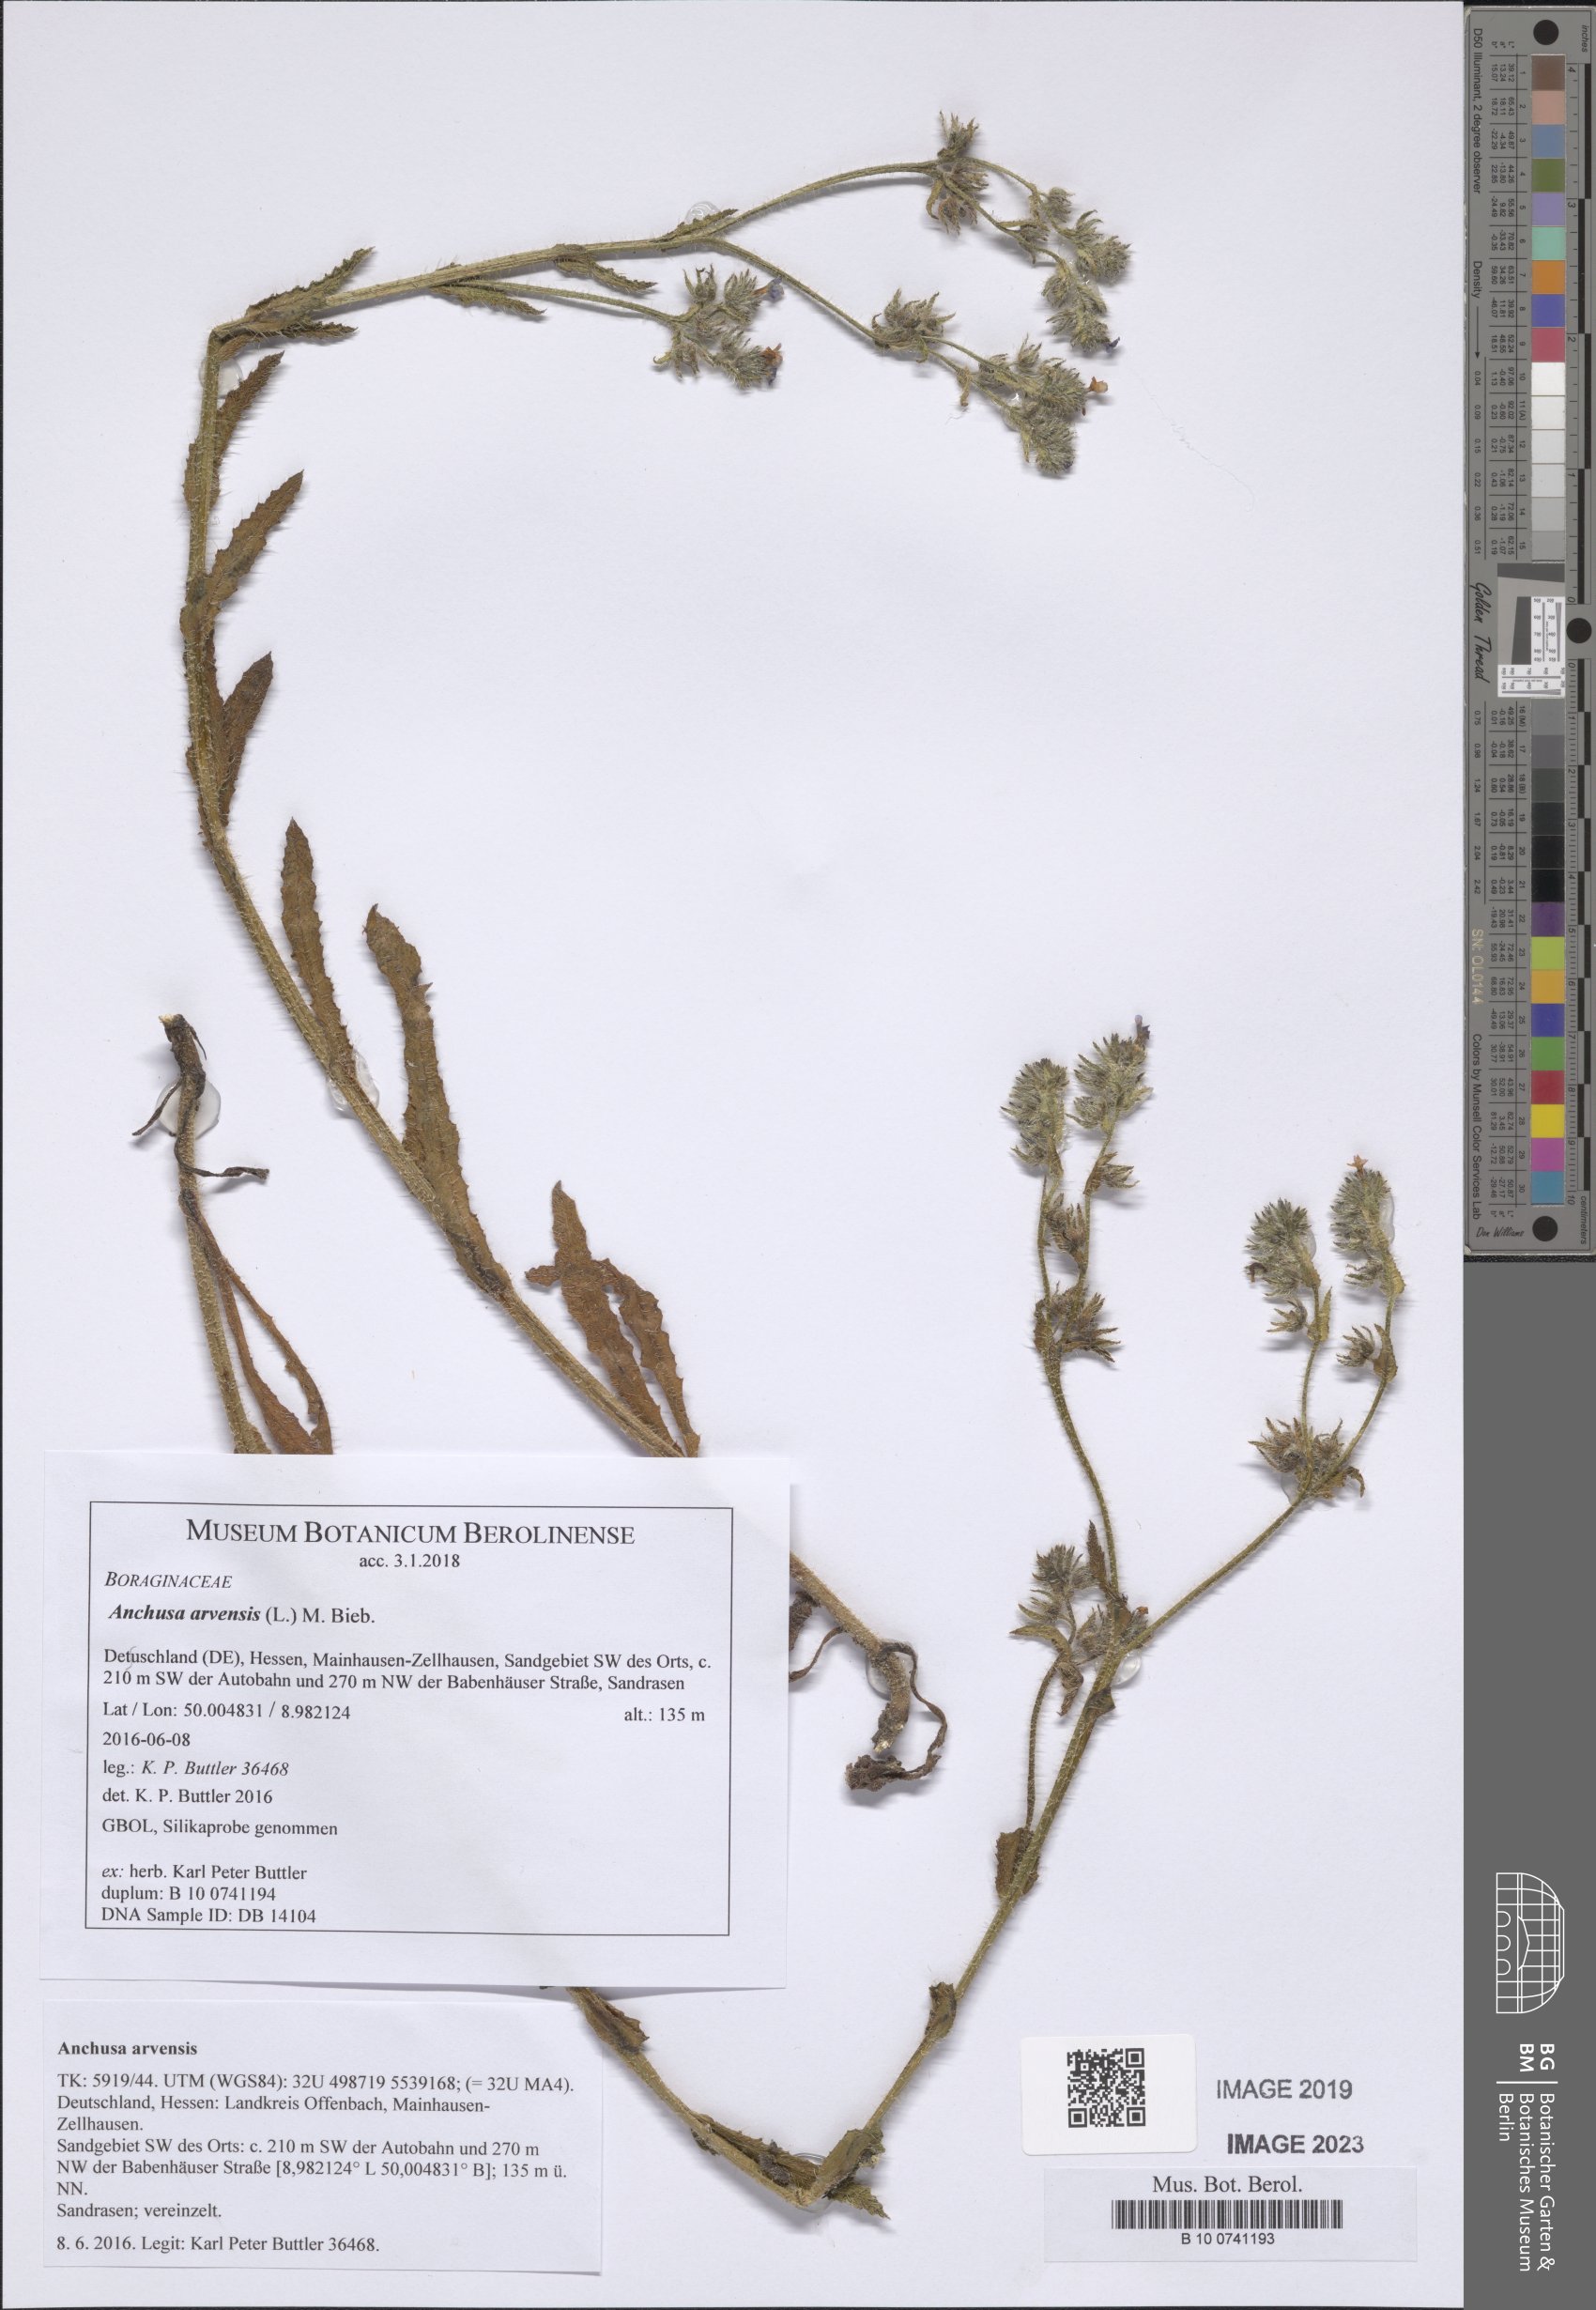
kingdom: Plantae
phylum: Tracheophyta
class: Magnoliopsida
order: Boraginales
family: Boraginaceae
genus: Lycopsis
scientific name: Lycopsis arvensis
